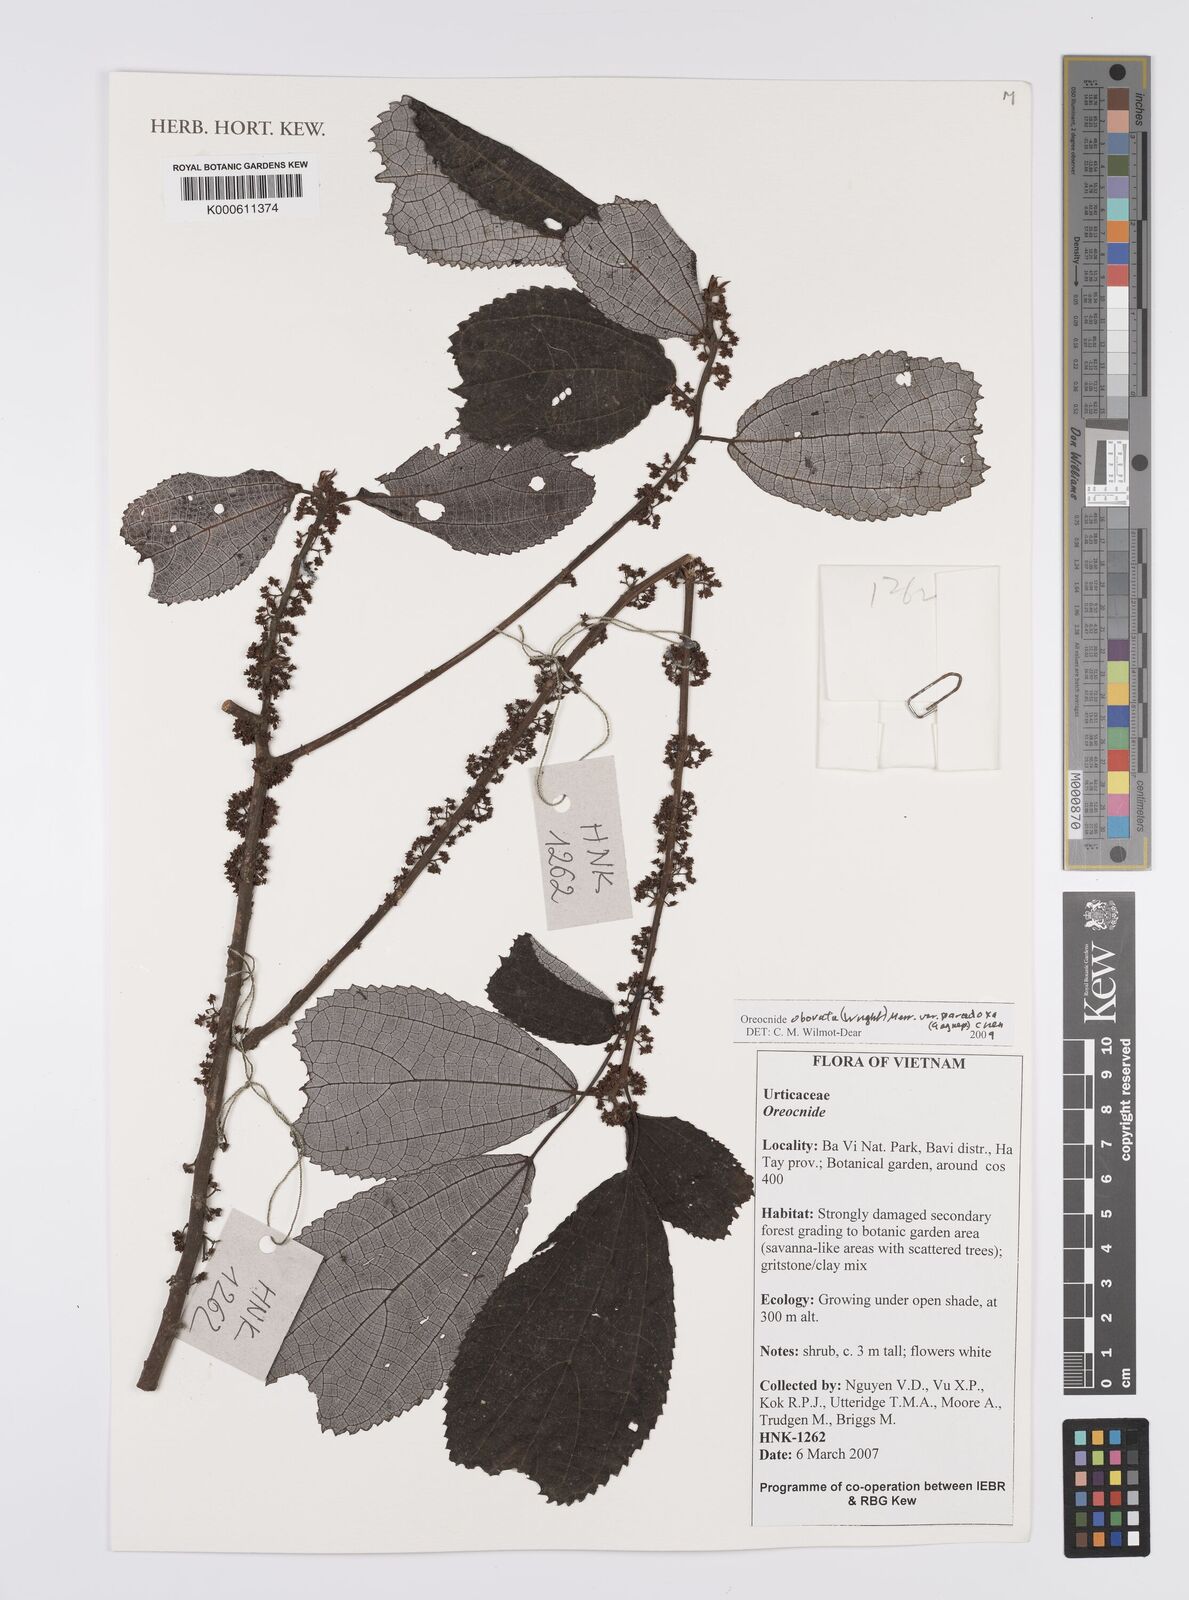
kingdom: Plantae
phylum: Tracheophyta
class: Magnoliopsida
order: Rosales
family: Urticaceae
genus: Oreocnide
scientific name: Oreocnide obovata
